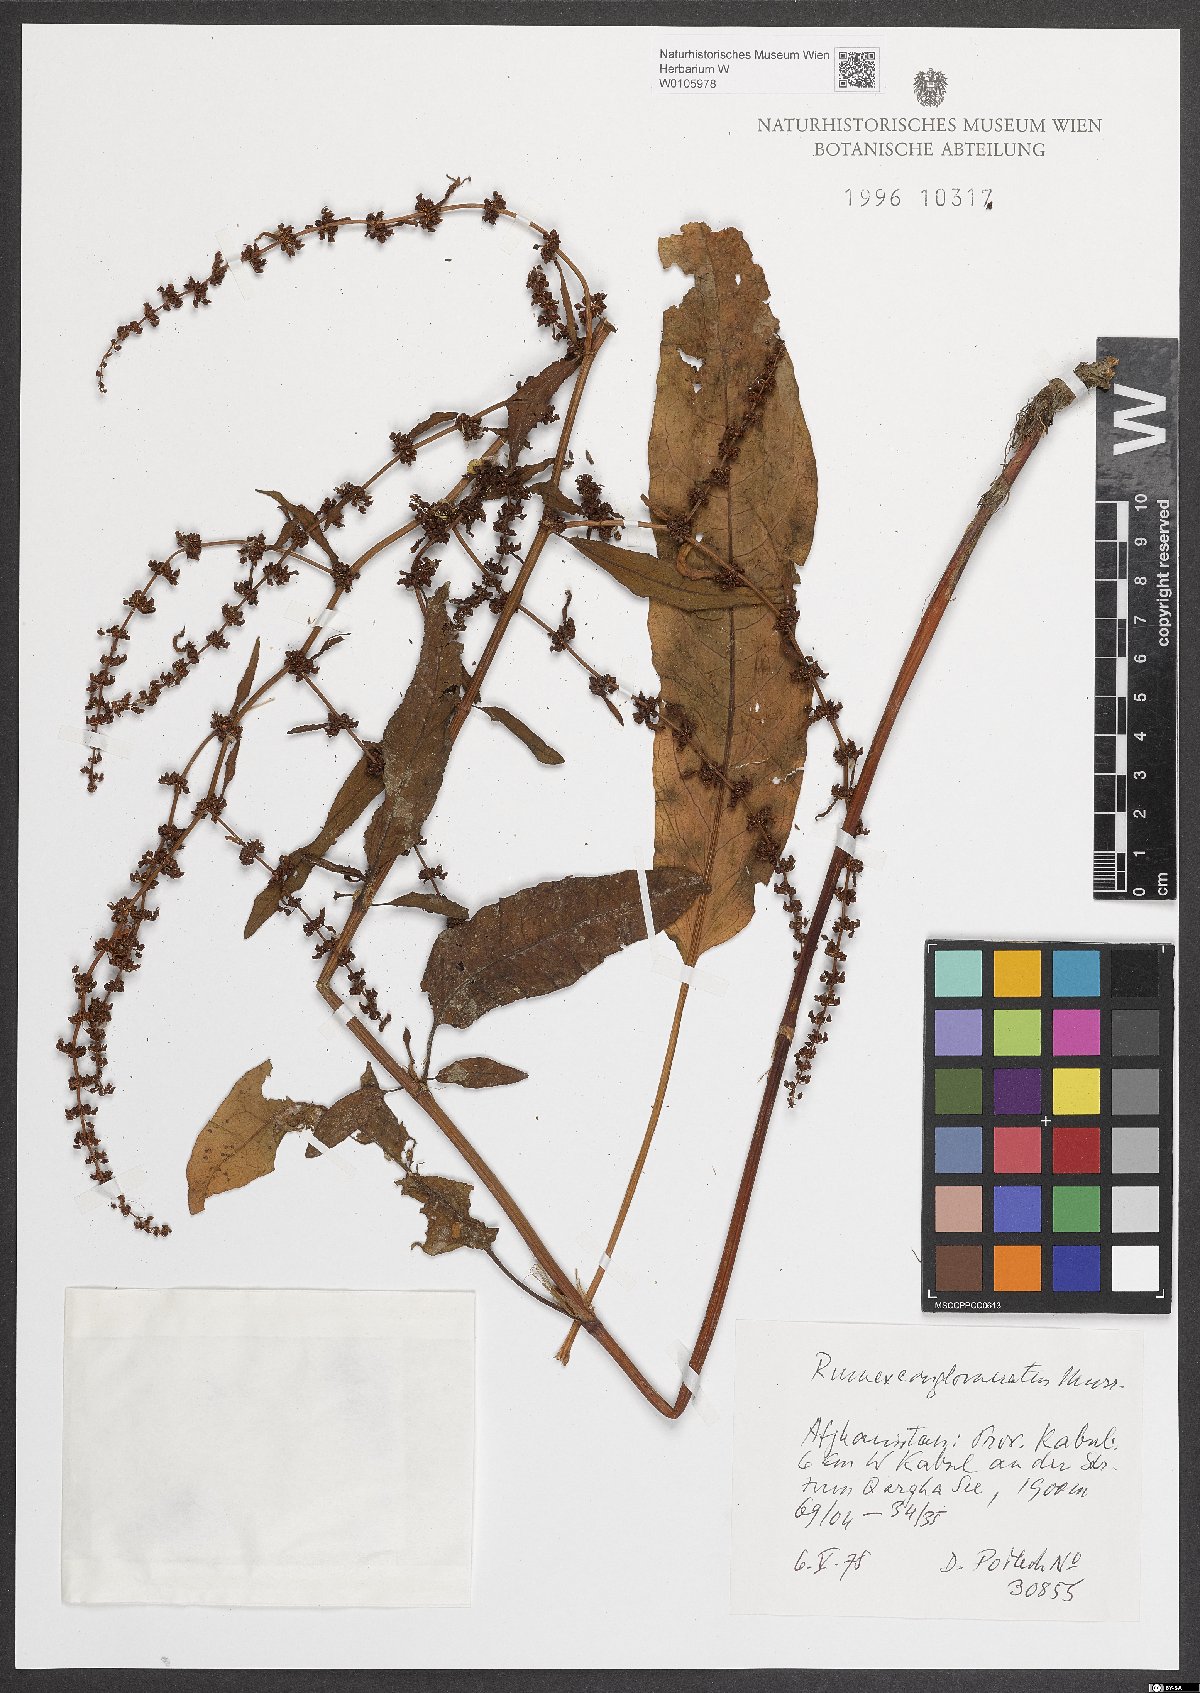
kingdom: Plantae
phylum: Tracheophyta
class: Magnoliopsida
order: Caryophyllales
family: Polygonaceae
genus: Rumex
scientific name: Rumex conglomeratus
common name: Clustered dock
